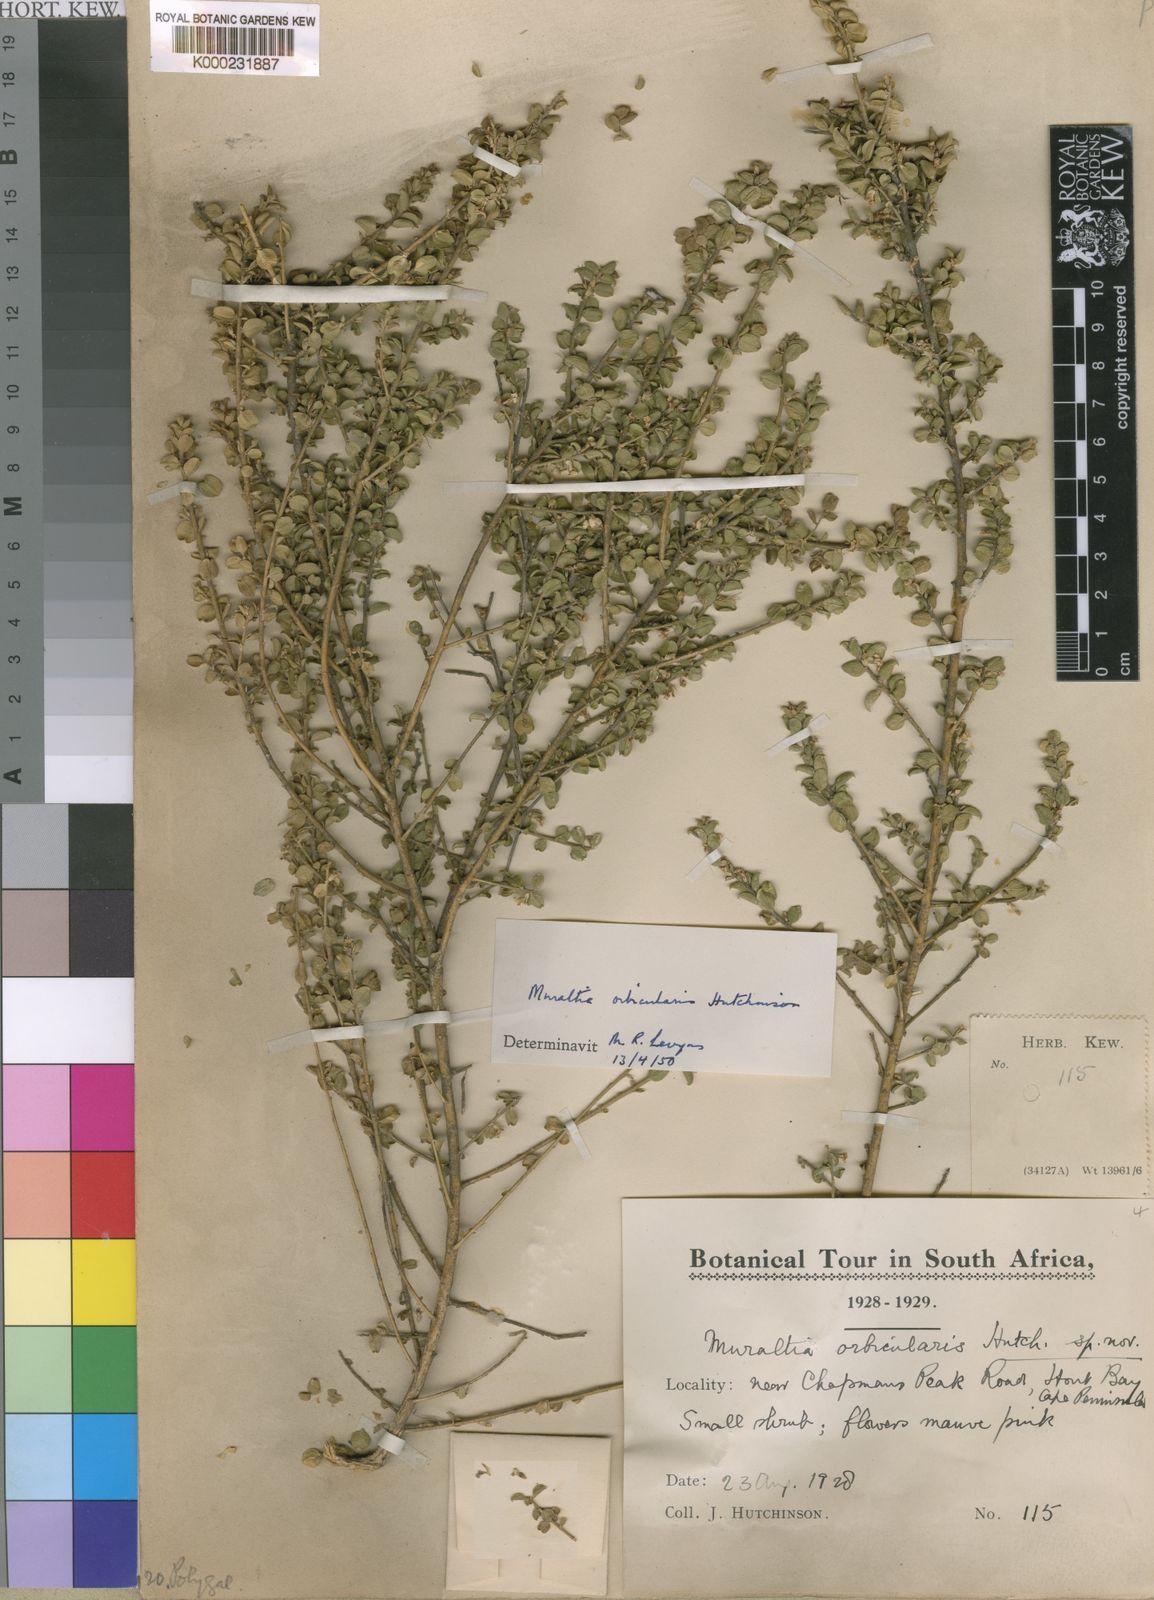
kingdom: Plantae
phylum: Tracheophyta
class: Magnoliopsida
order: Fabales
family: Polygalaceae
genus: Muraltia
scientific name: Muraltia orbicularis
